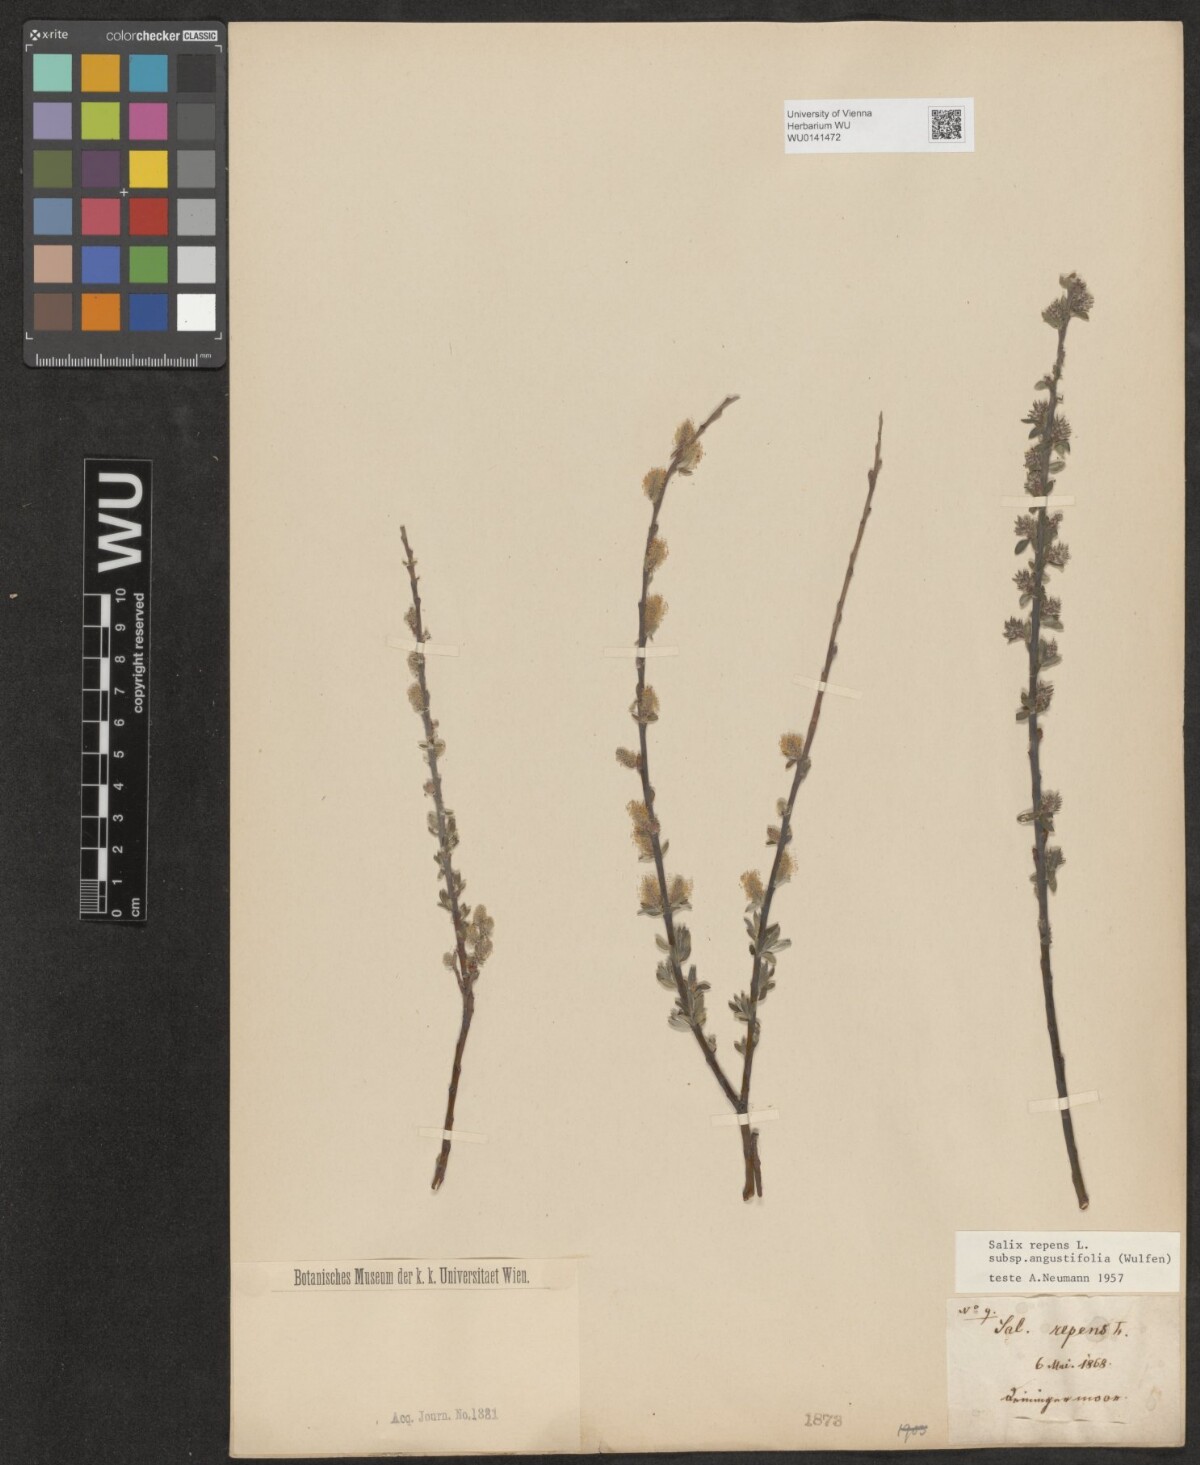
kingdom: Plantae
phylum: Tracheophyta
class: Magnoliopsida
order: Malpighiales
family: Salicaceae
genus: Salix
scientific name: Salix rosmarinifolia
